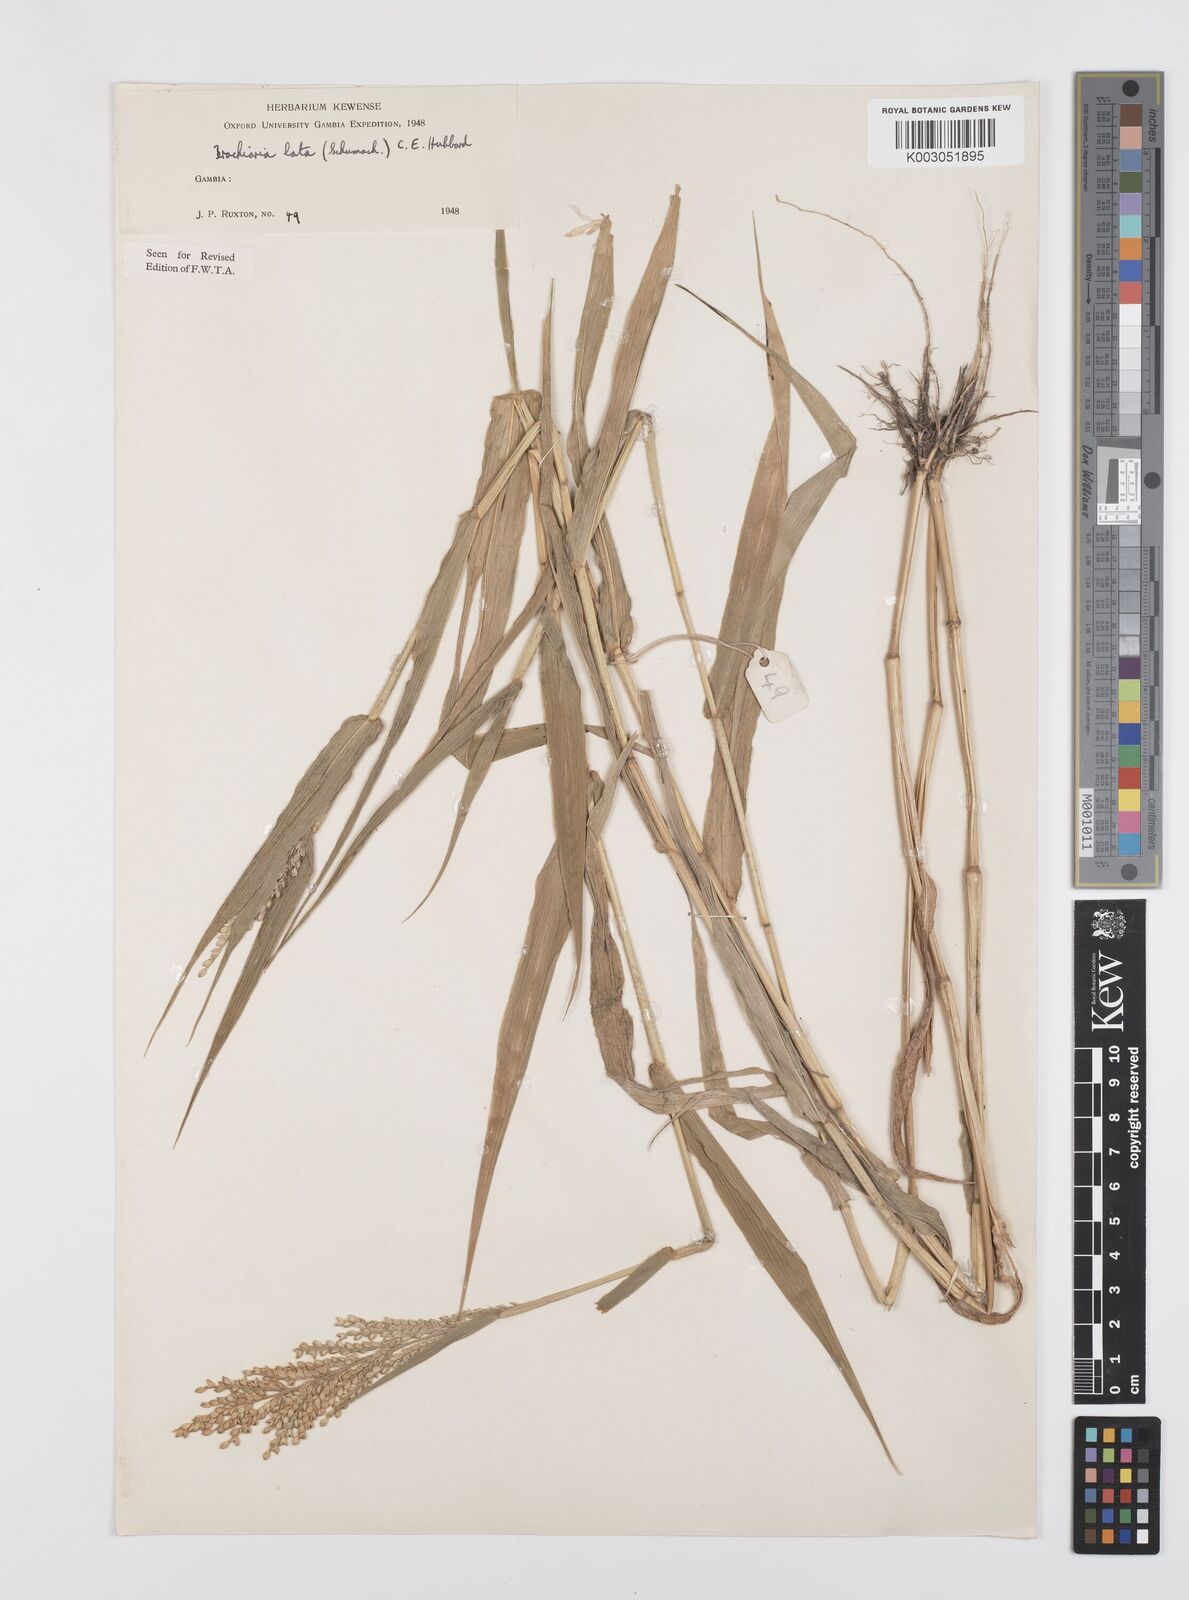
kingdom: Plantae
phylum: Tracheophyta
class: Liliopsida
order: Poales
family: Poaceae
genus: Urochloa
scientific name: Urochloa lata
